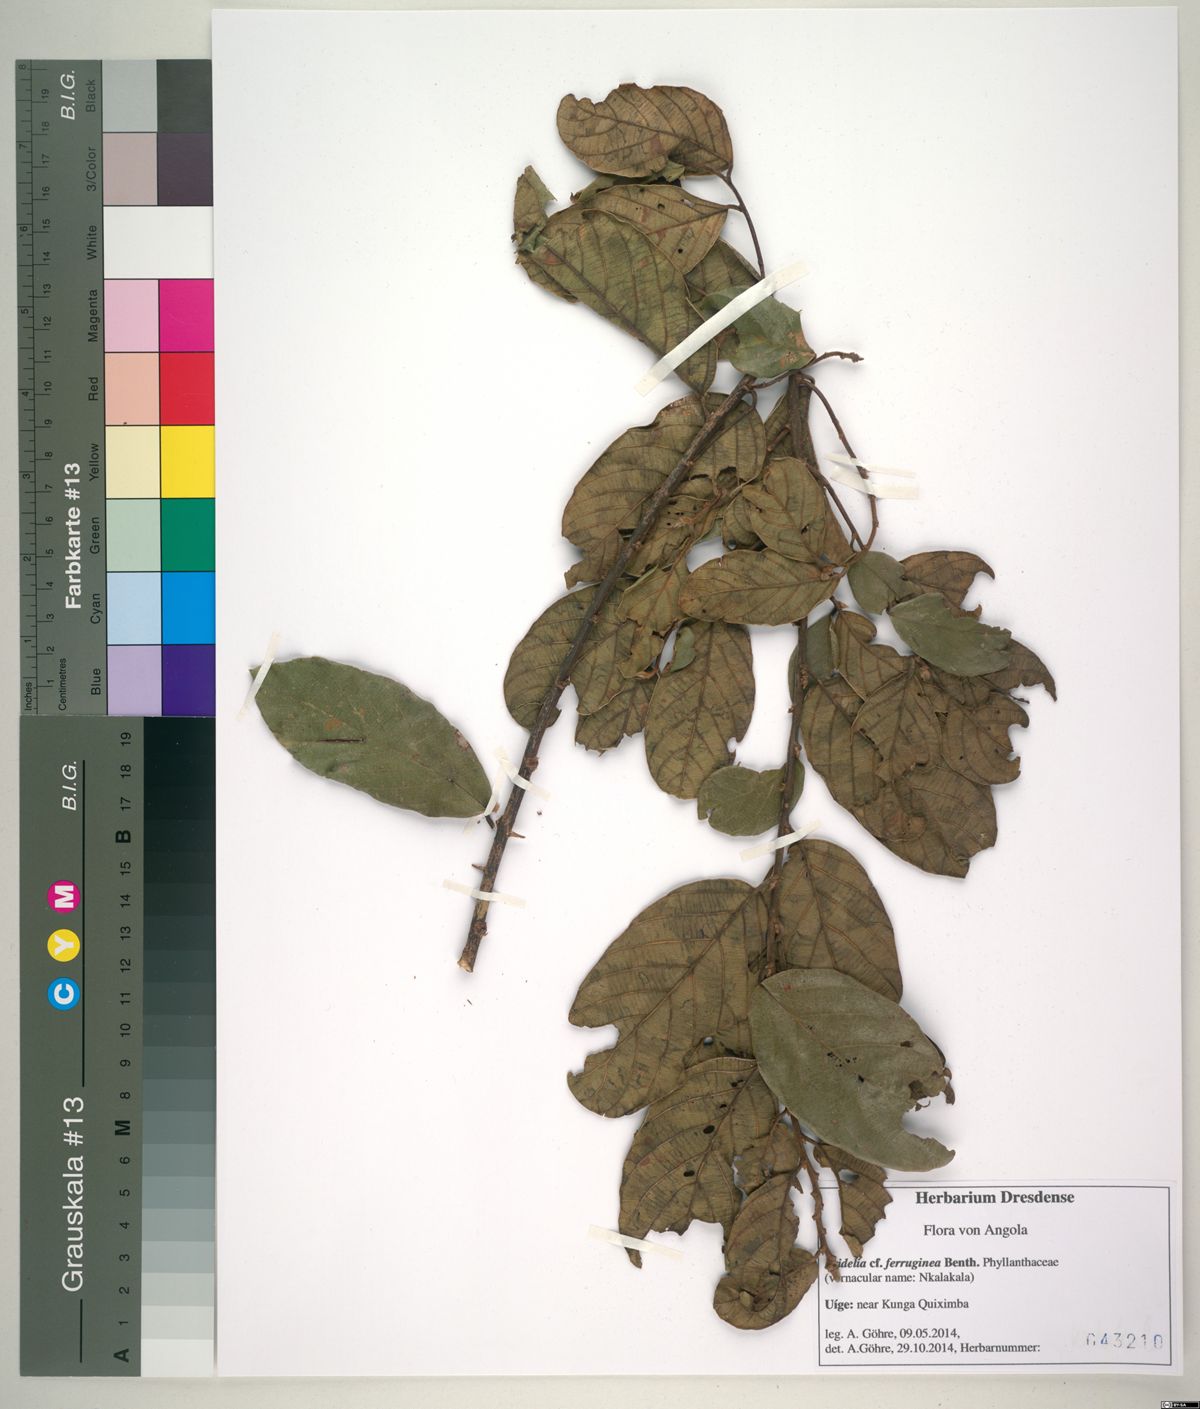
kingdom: Plantae
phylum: Tracheophyta
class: Magnoliopsida
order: Malpighiales
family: Phyllanthaceae
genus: Bridelia
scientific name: Bridelia ferruginea
